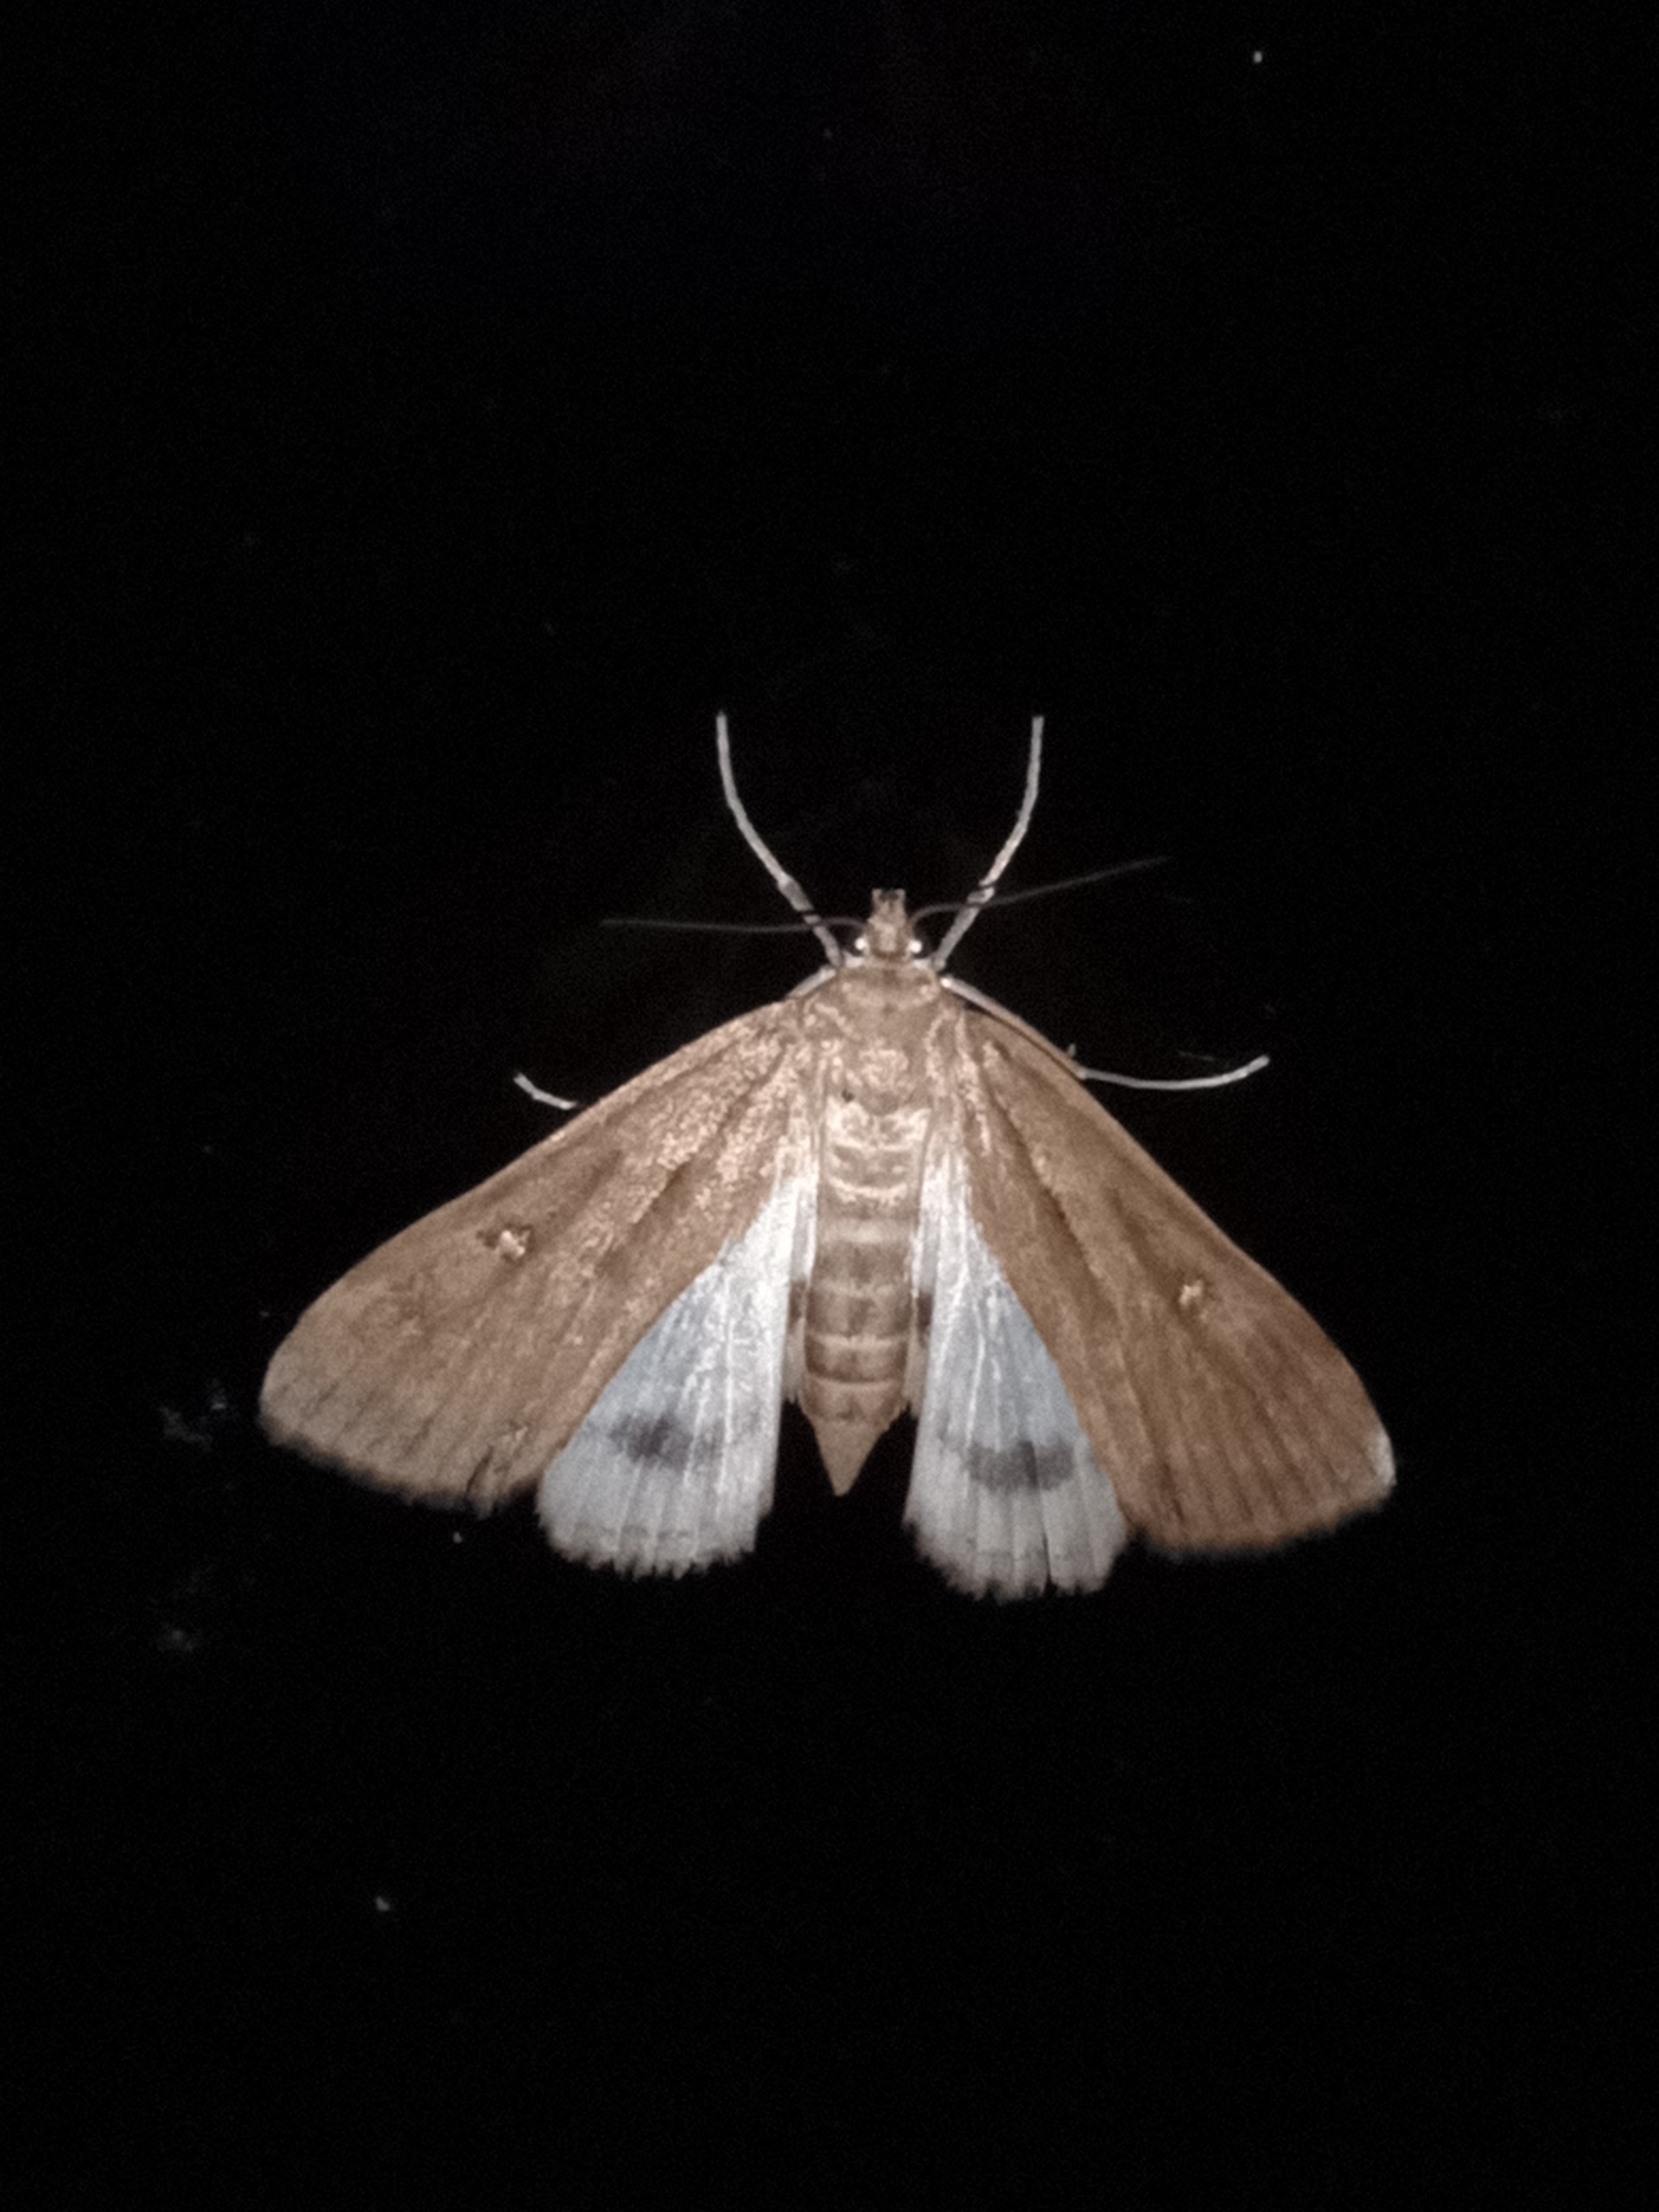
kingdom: Animalia
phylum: Arthropoda
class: Insecta
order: Lepidoptera
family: Crambidae
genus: Parapoynx
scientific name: Parapoynx stratiotata
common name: Vandpesthalvmøl
